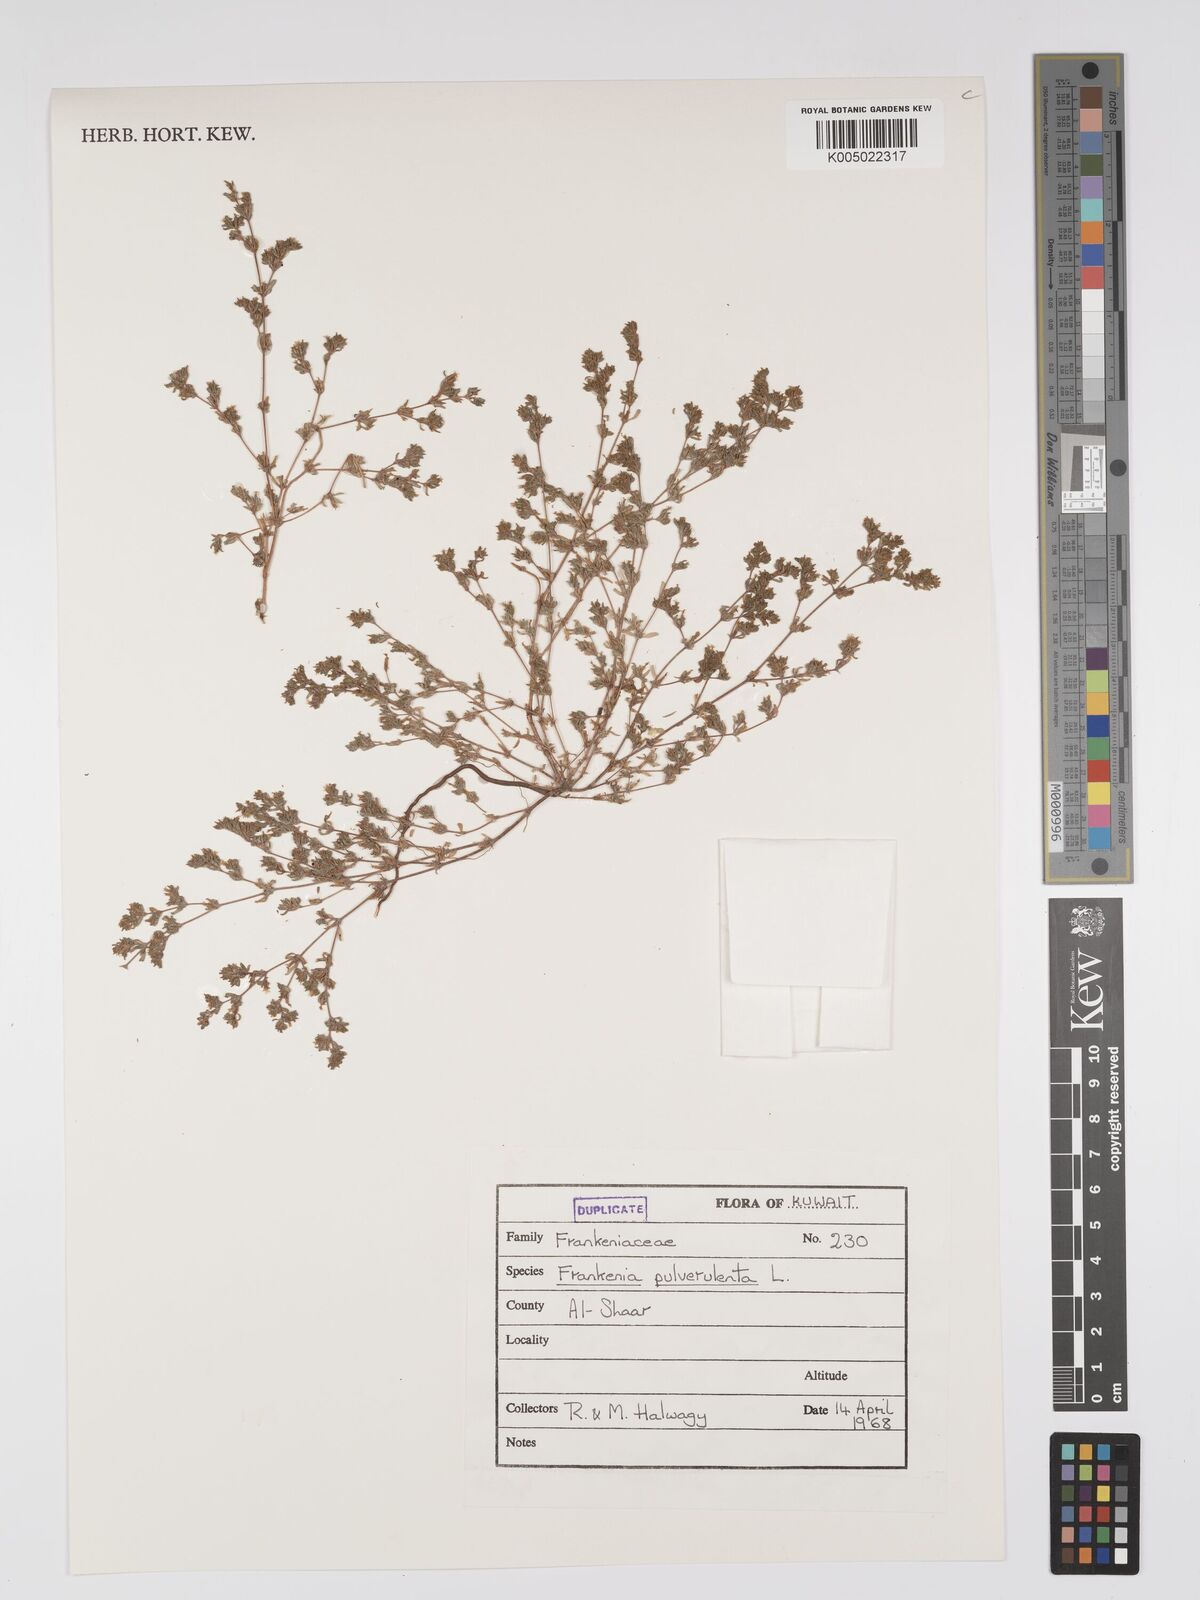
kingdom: Plantae
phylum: Tracheophyta
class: Magnoliopsida
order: Caryophyllales
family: Frankeniaceae
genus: Frankenia
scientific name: Frankenia pulverulenta
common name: European seaheath
